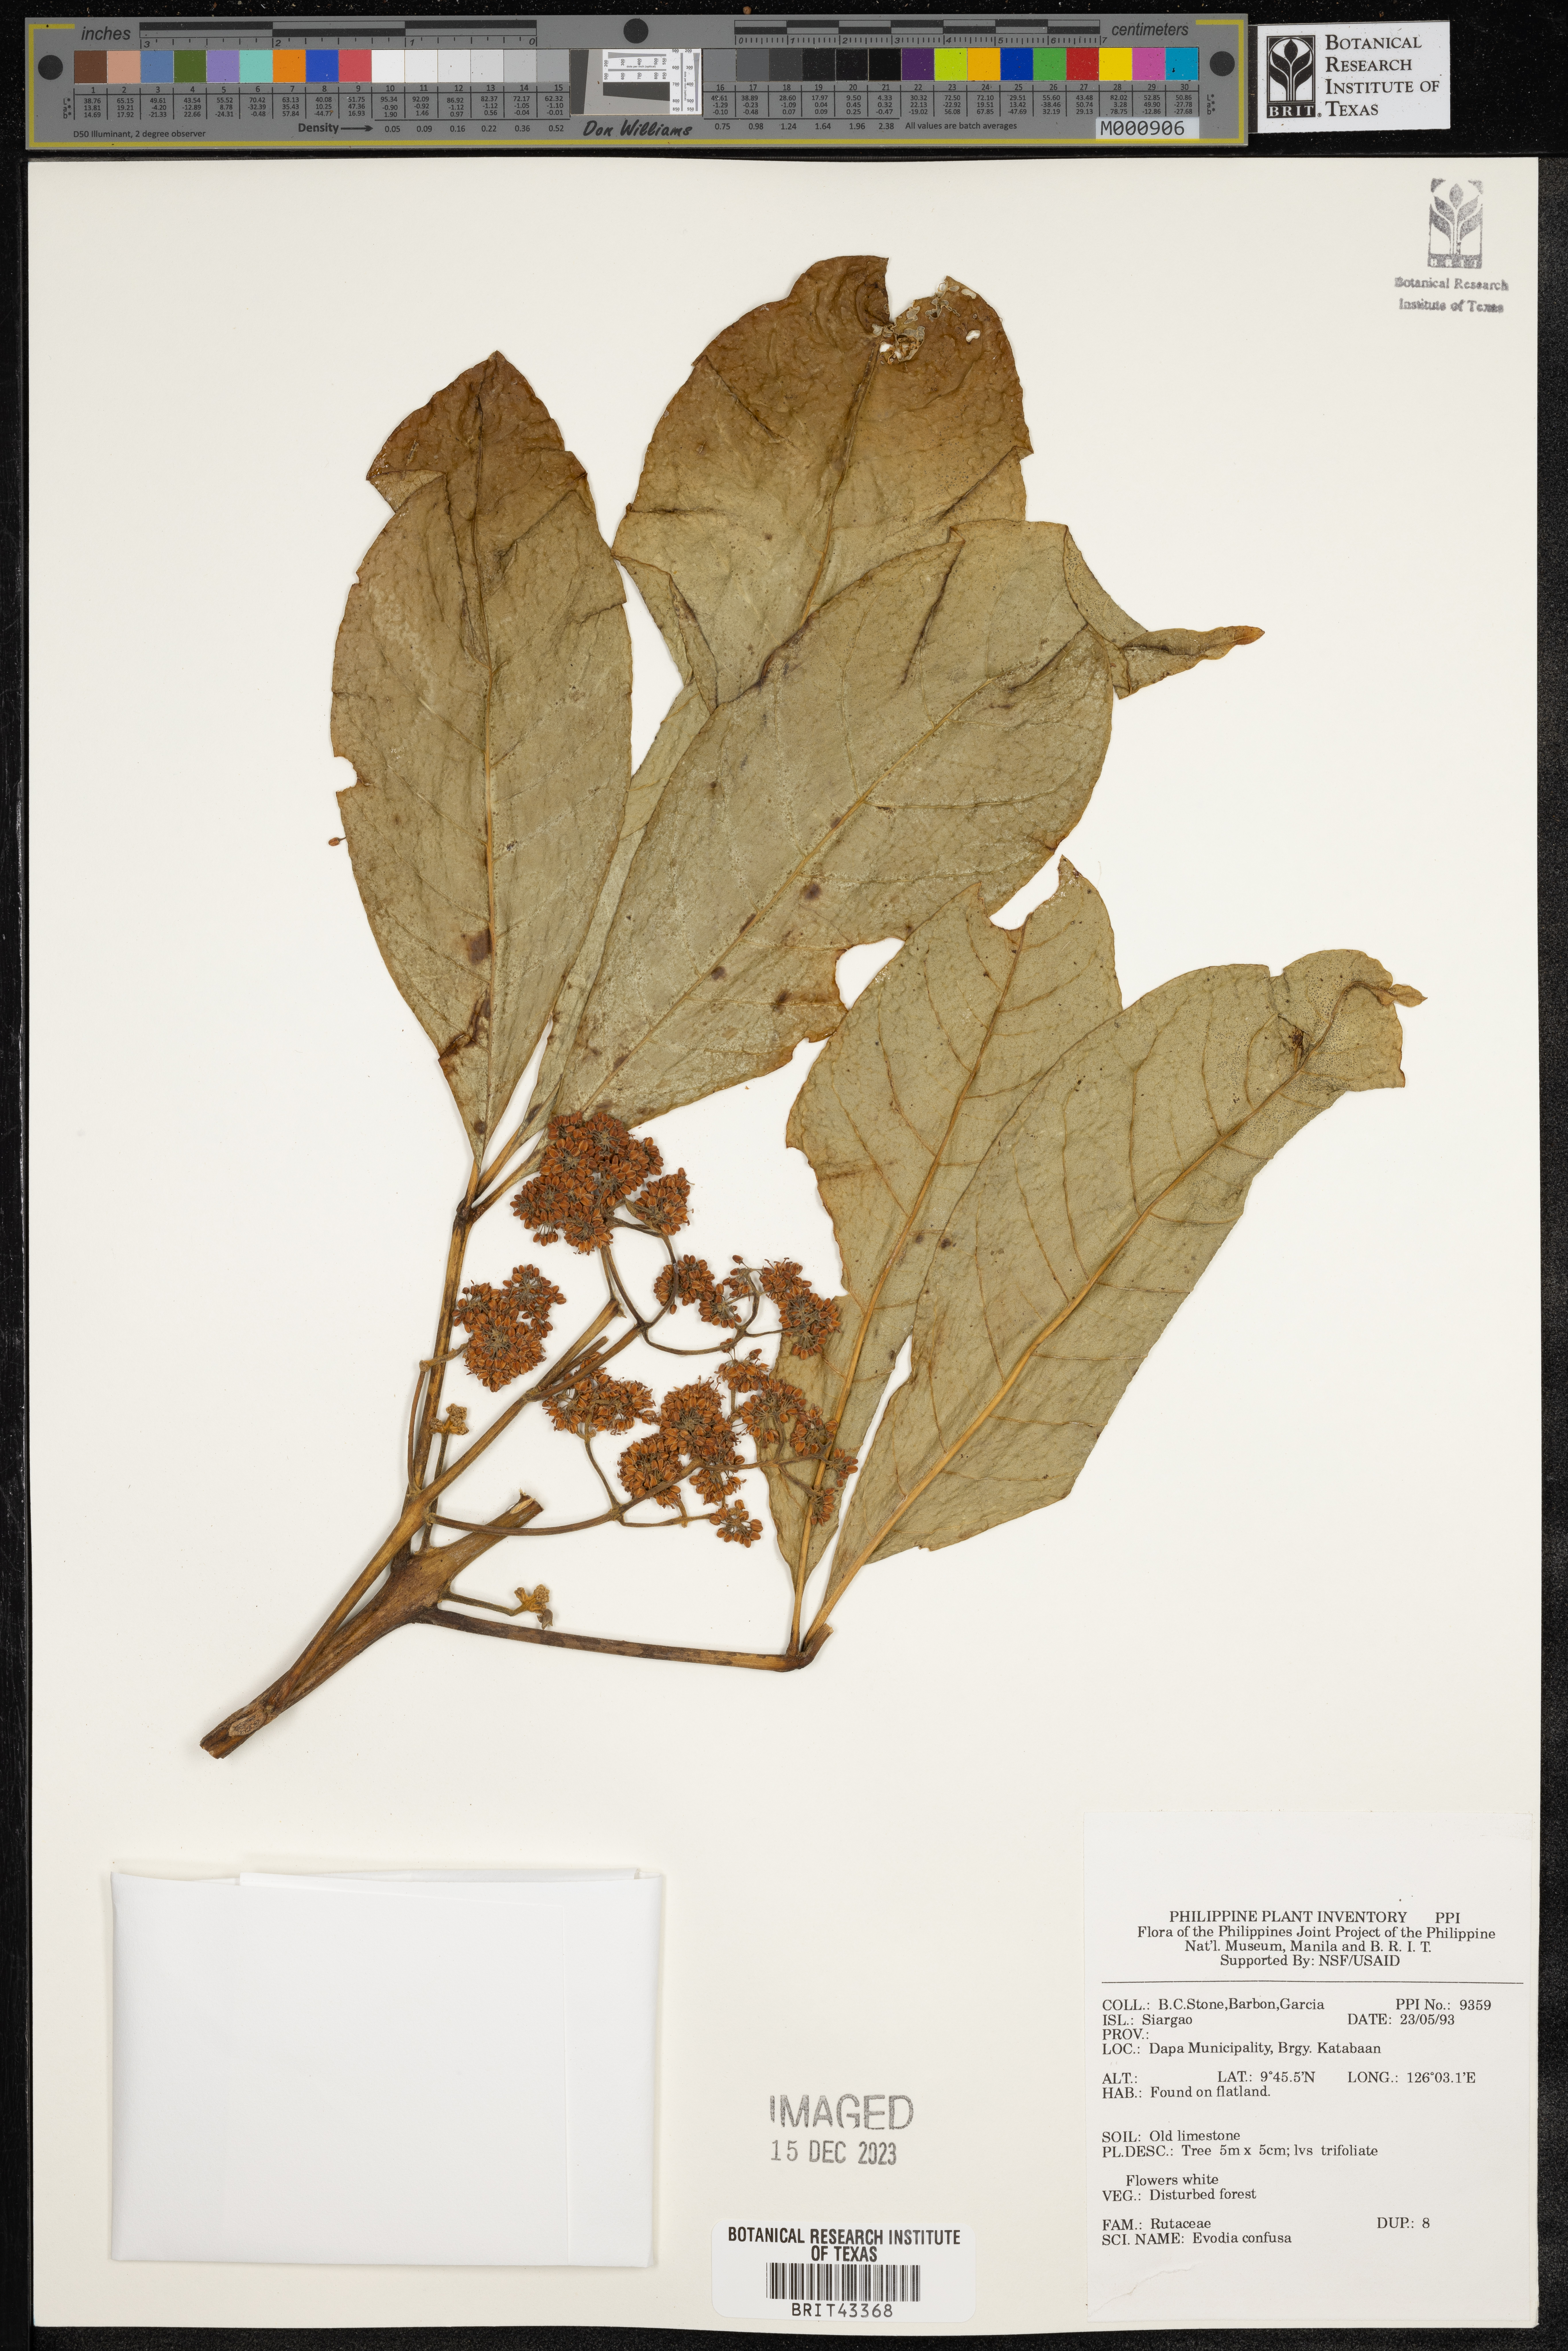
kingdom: Plantae
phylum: Tracheophyta
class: Magnoliopsida
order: Sapindales
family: Rutaceae
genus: Melicope
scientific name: Melicope frutescens
